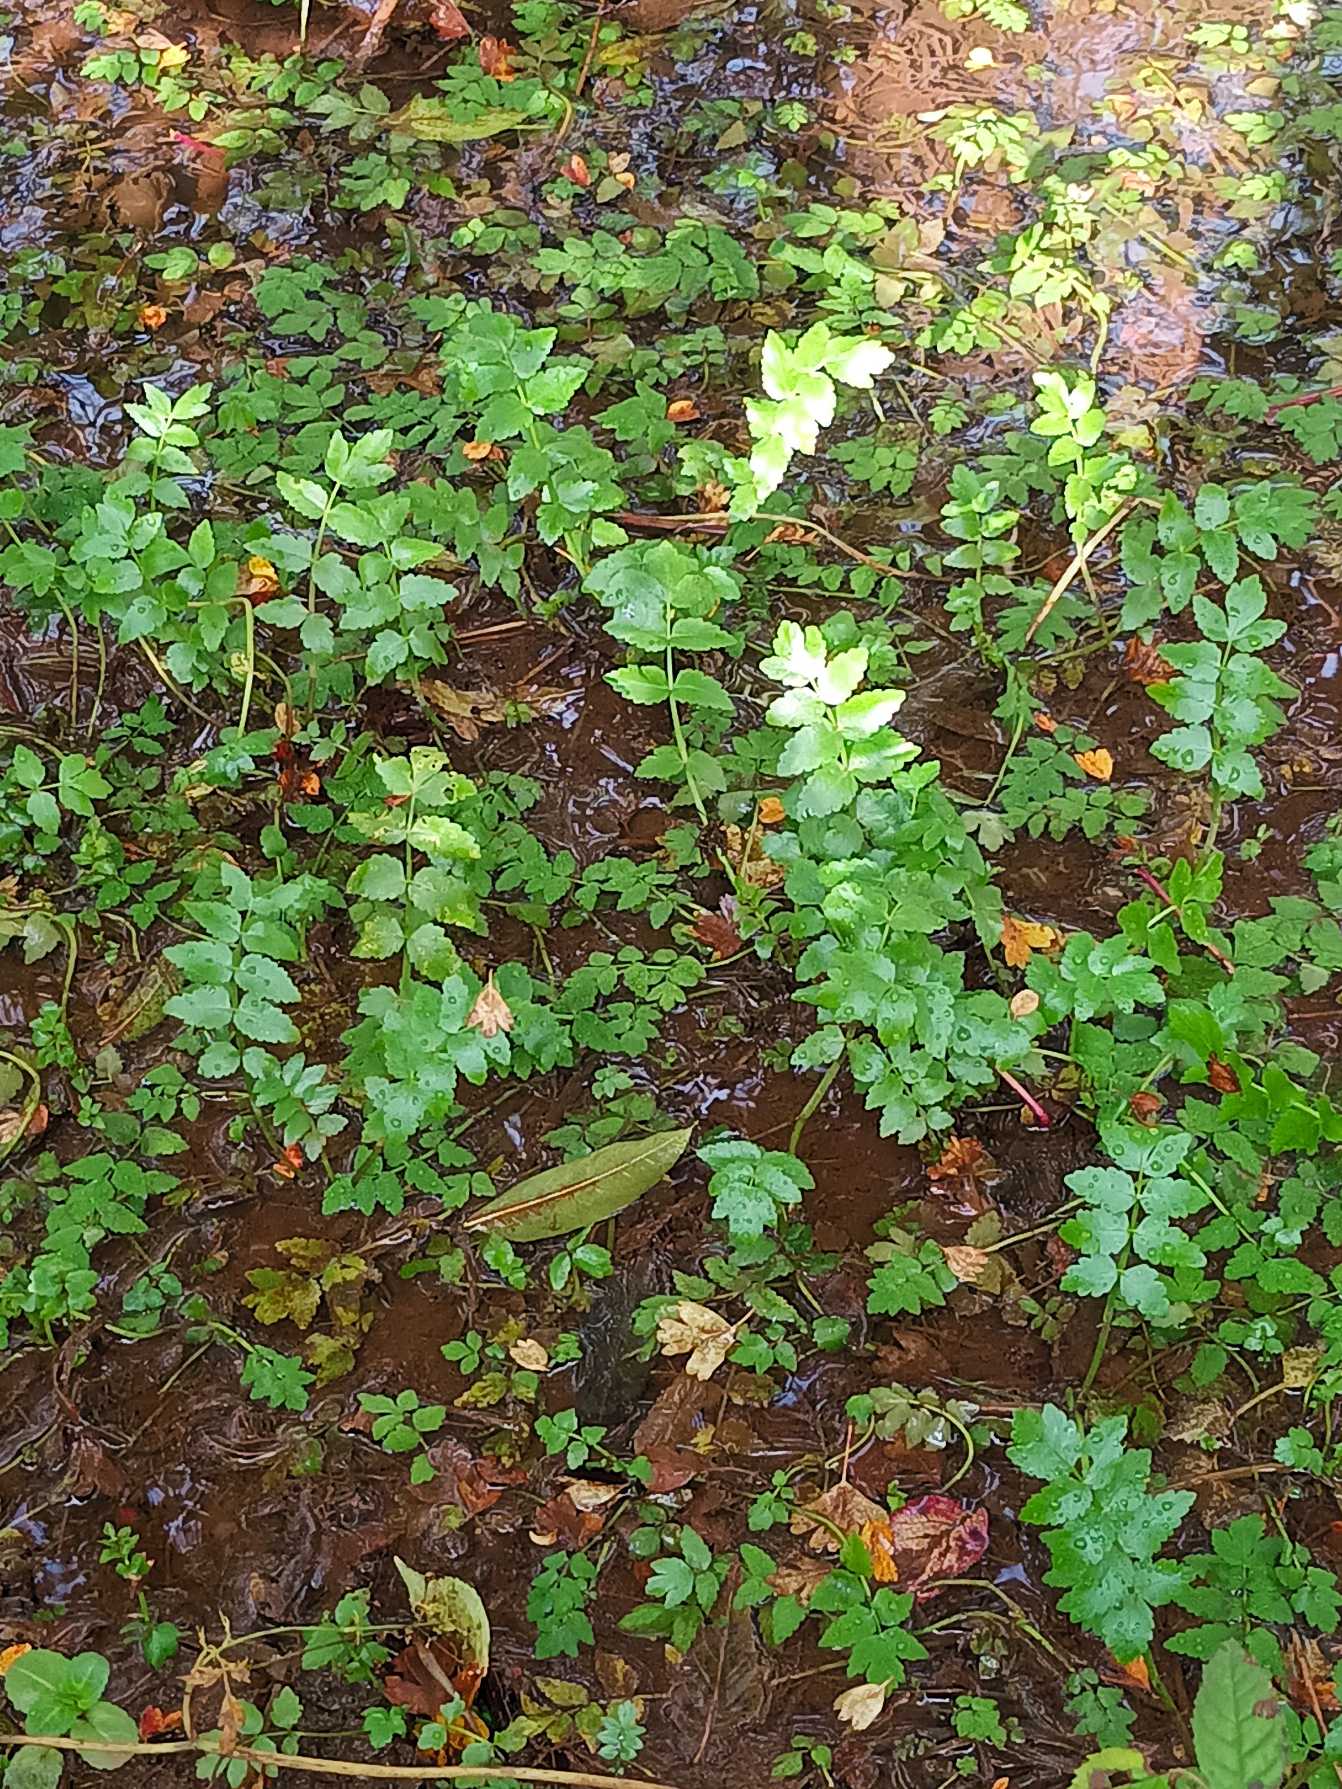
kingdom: Plantae
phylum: Tracheophyta
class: Magnoliopsida
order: Apiales
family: Apiaceae
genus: Berula
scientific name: Berula erecta
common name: Sideskærm
